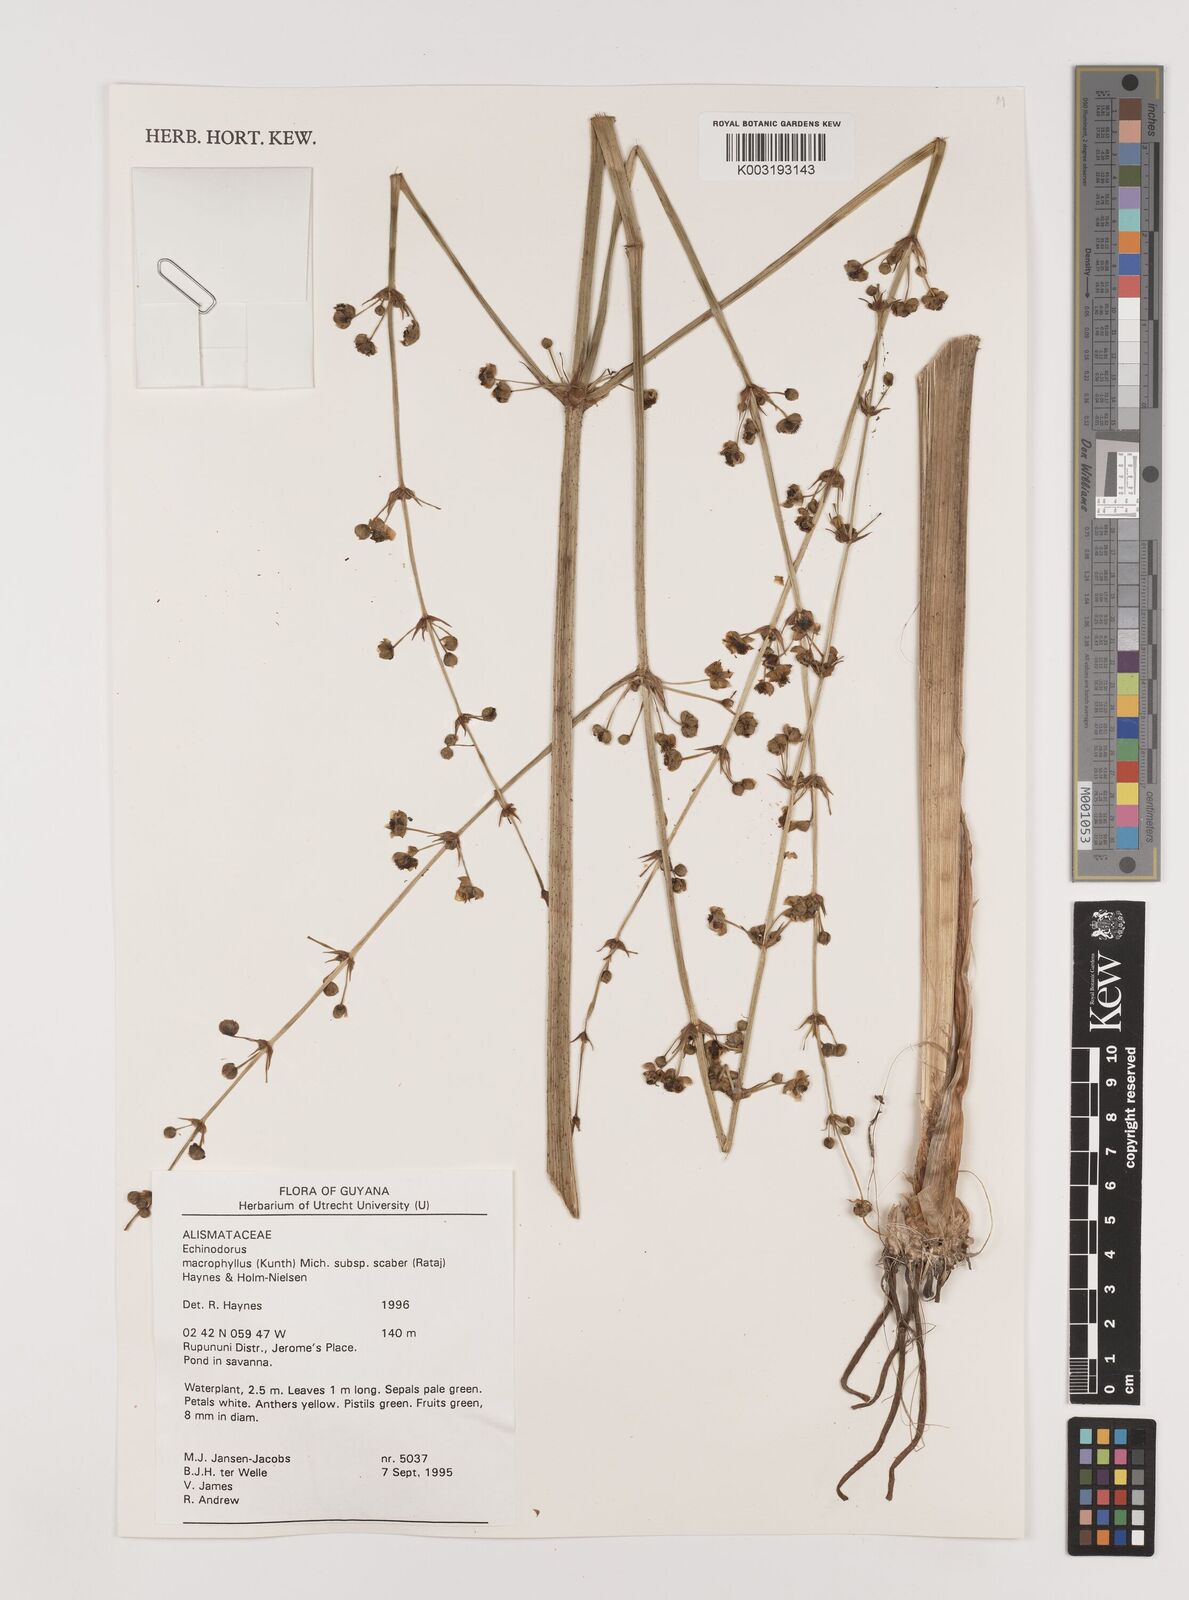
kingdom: Plantae
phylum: Tracheophyta
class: Liliopsida
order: Alismatales
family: Alismataceae
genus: Aquarius
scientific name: Aquarius macrophyllus
